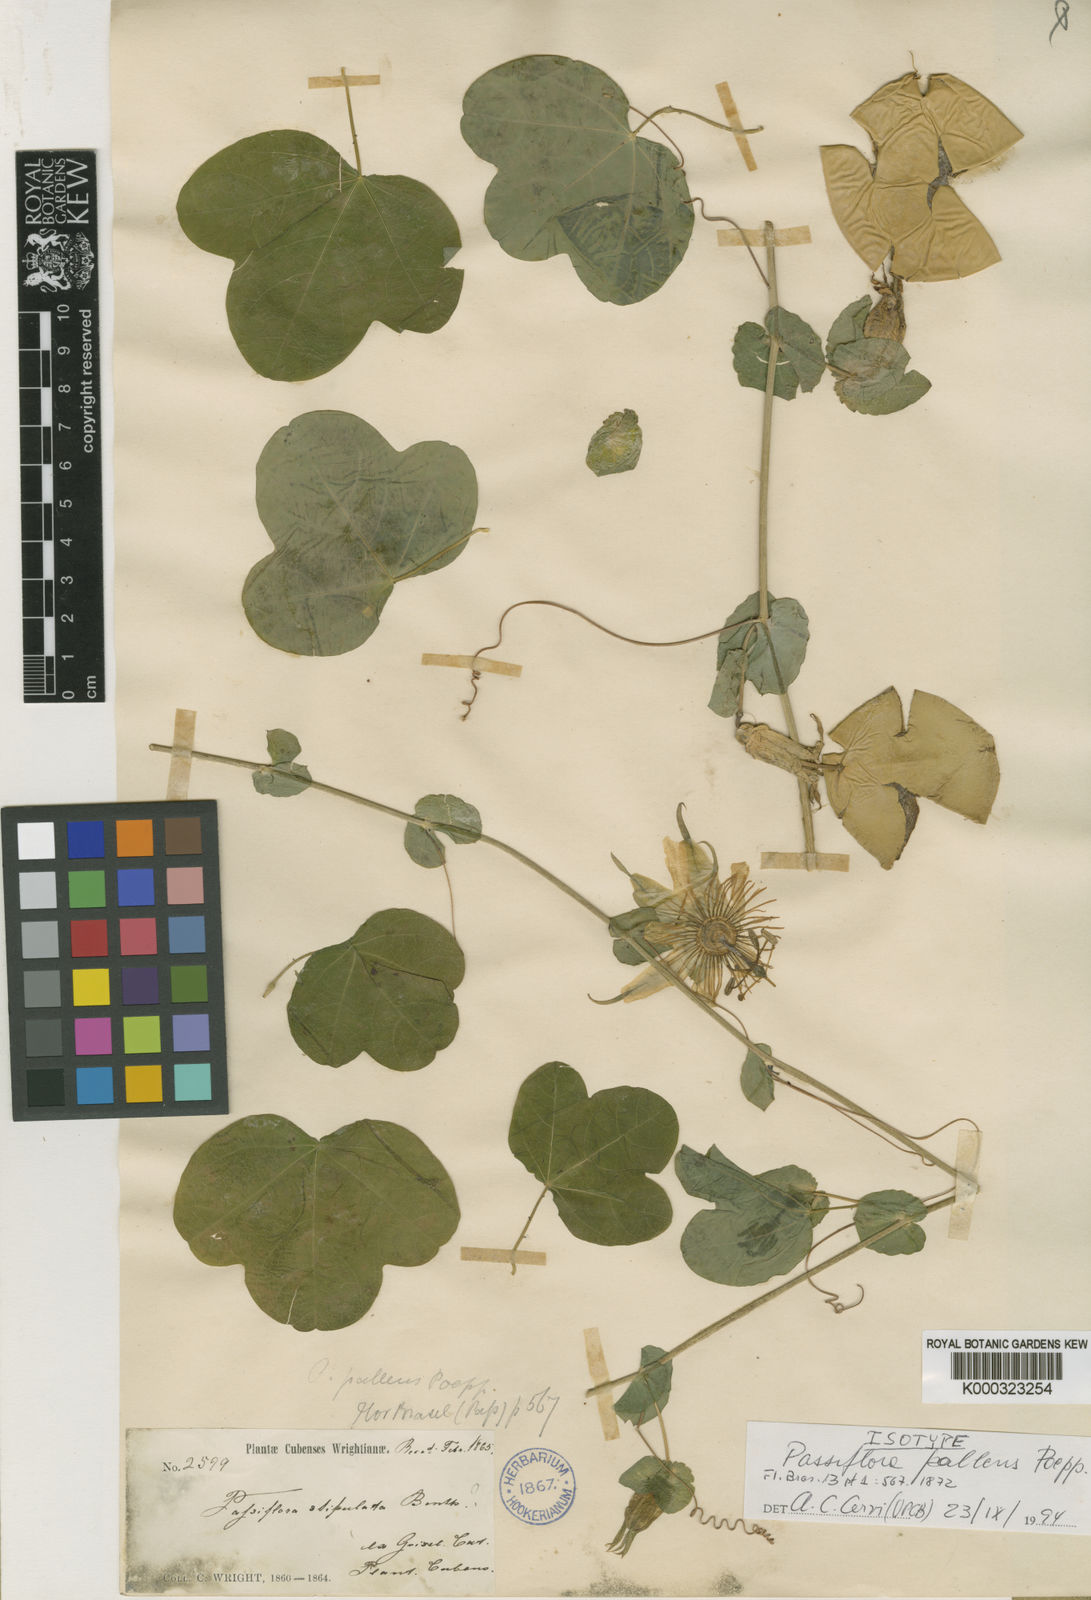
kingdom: Plantae
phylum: Tracheophyta
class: Magnoliopsida
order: Malpighiales
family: Passifloraceae
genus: Passiflora
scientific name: Passiflora pallens
